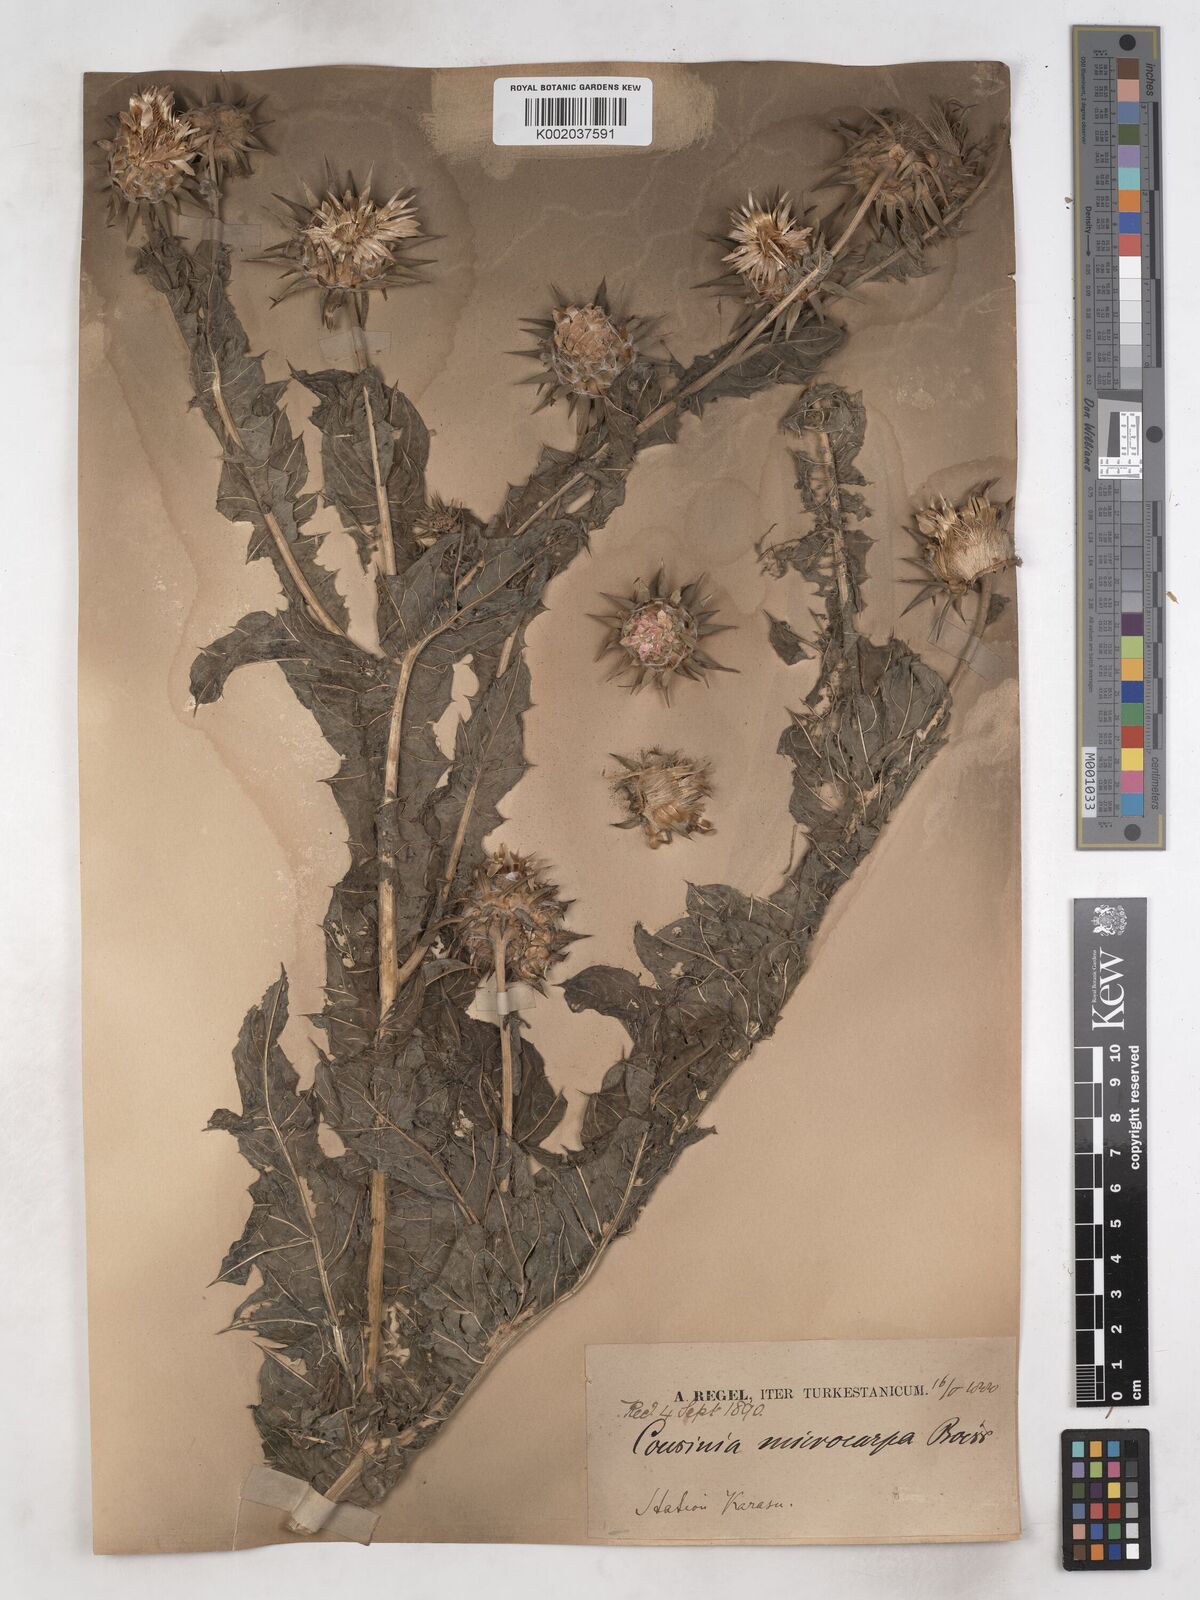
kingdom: Plantae
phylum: Tracheophyta
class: Magnoliopsida
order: Asterales
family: Asteraceae
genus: Cousinia
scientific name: Cousinia microcarpa
